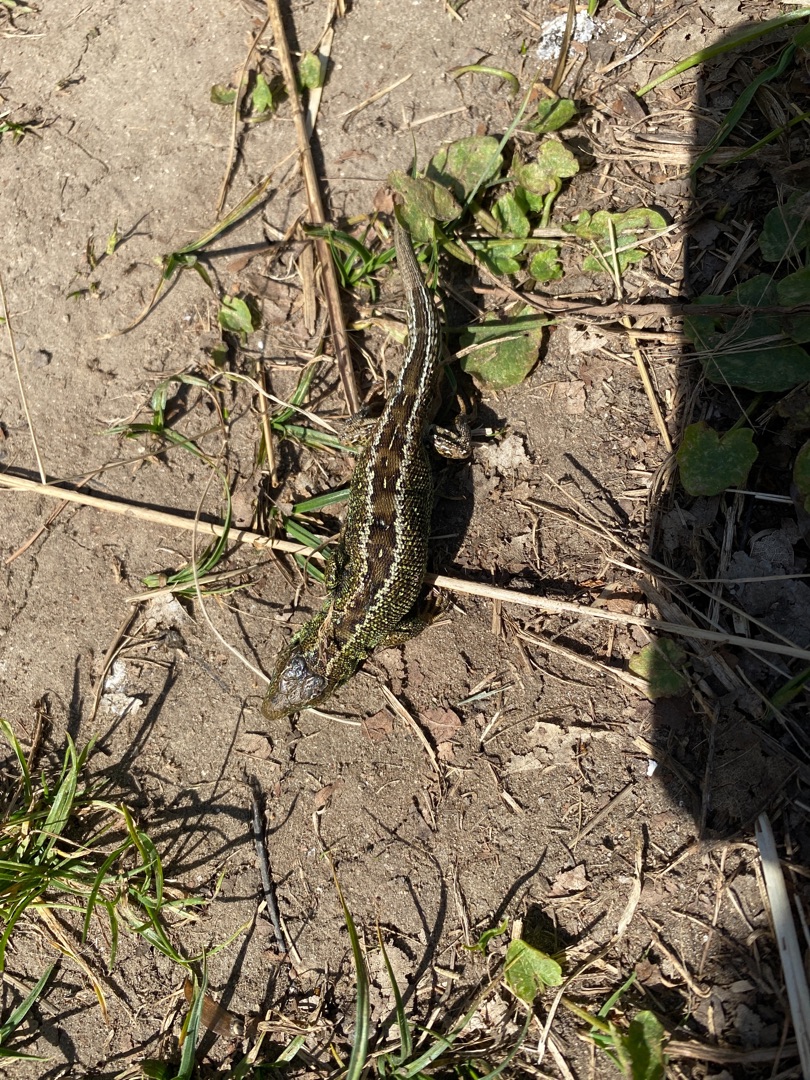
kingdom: Animalia
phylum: Chordata
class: Squamata
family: Lacertidae
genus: Lacerta
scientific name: Lacerta agilis
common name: Markfirben
